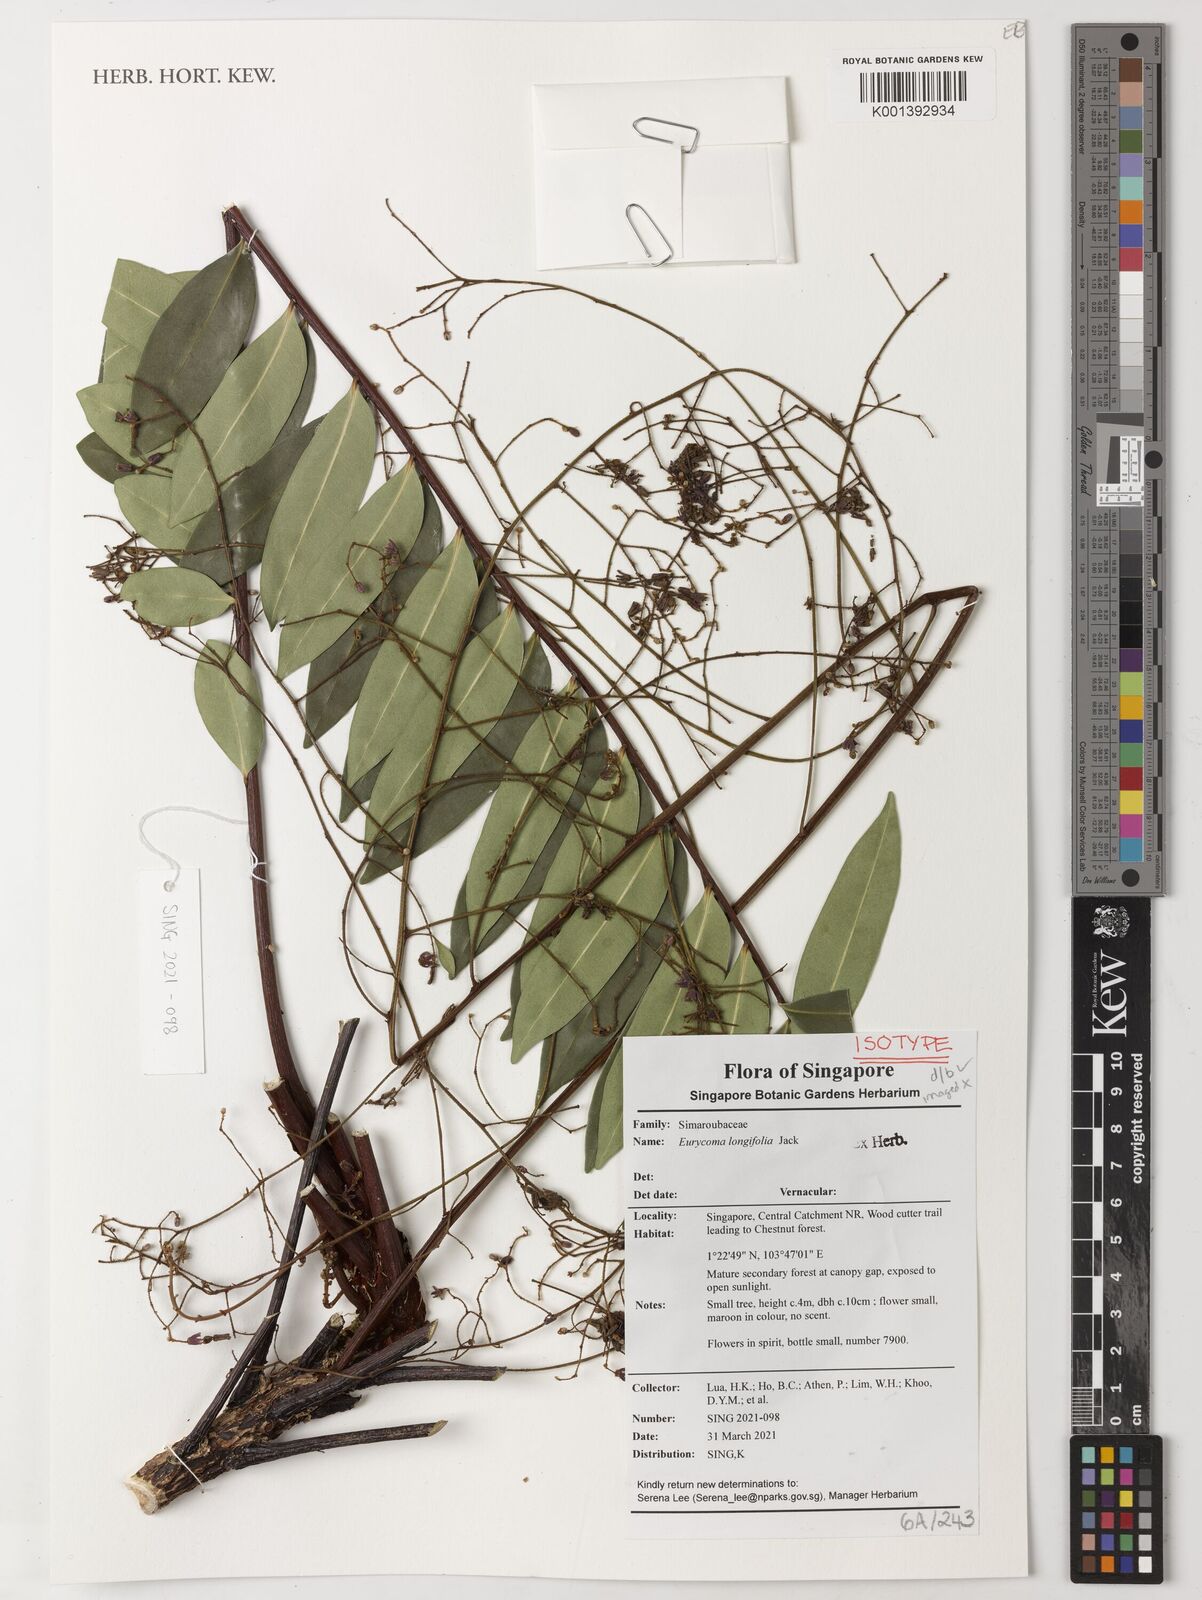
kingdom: Plantae
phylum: Tracheophyta
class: Magnoliopsida
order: Sapindales
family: Simaroubaceae
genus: Eurycoma
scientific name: Eurycoma longifolia
